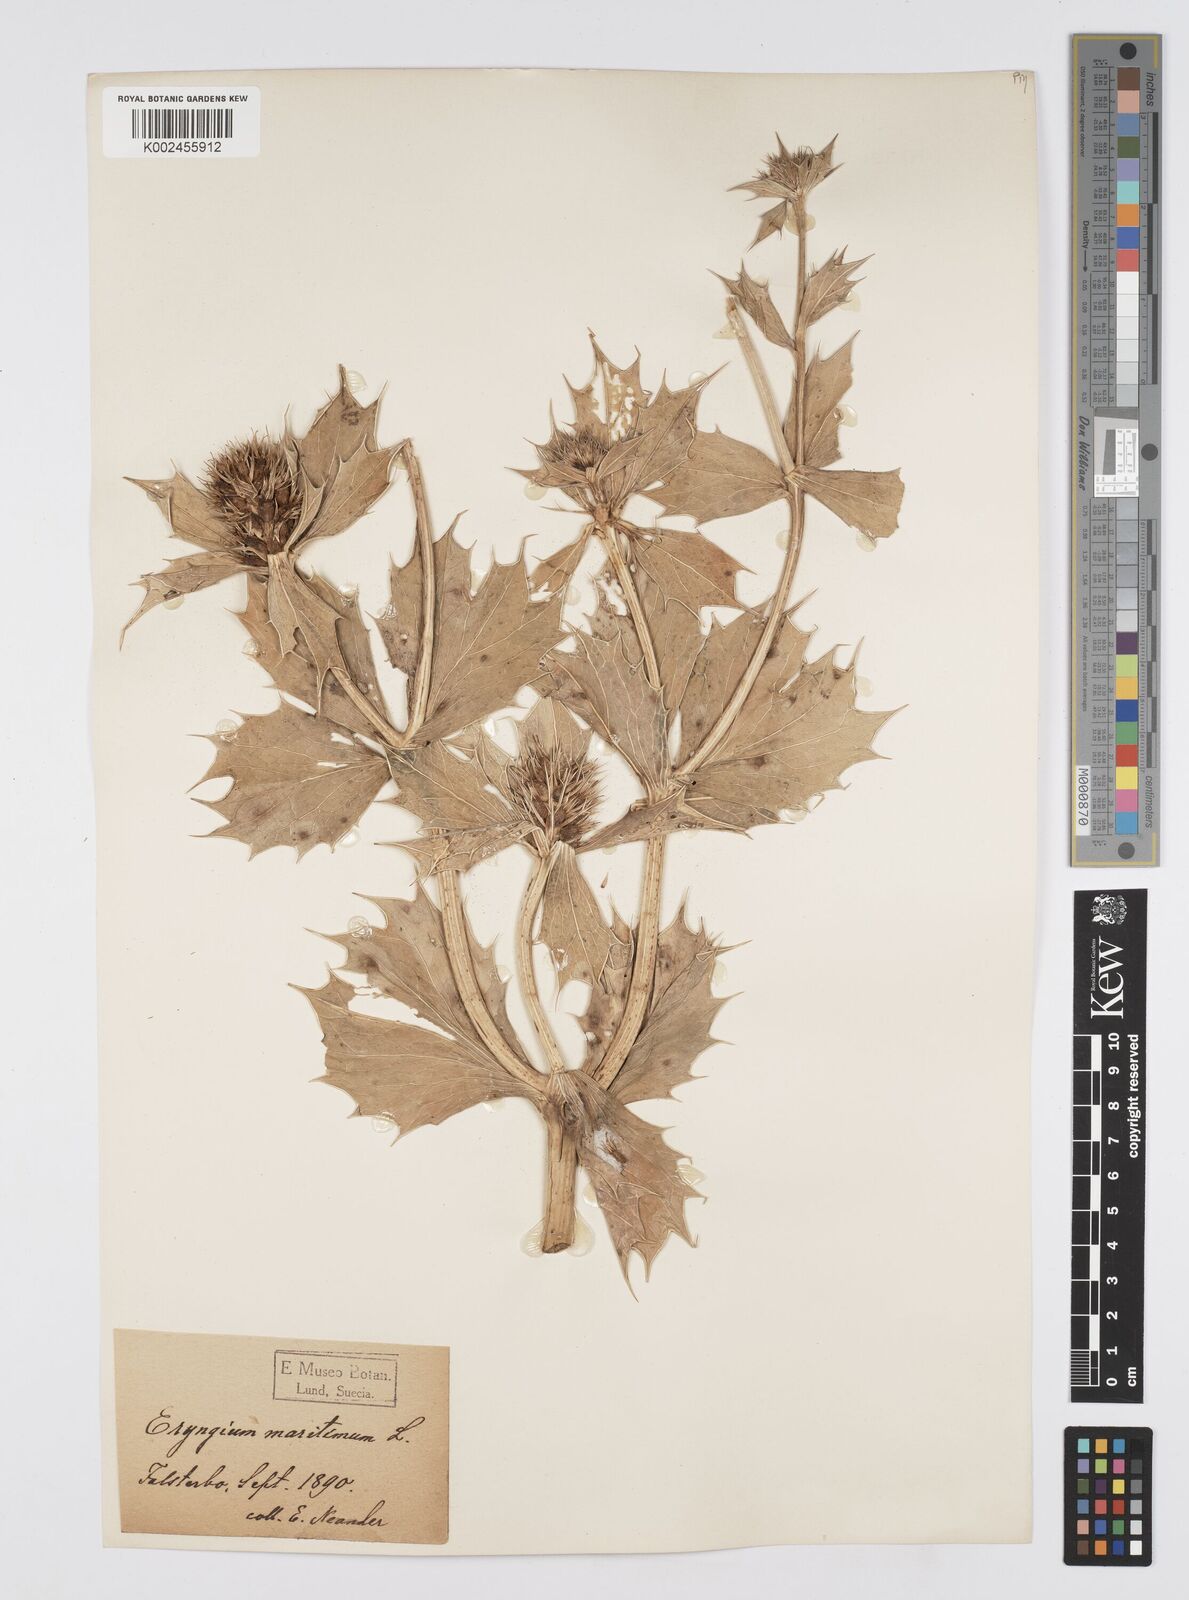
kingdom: Plantae
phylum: Tracheophyta
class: Magnoliopsida
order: Apiales
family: Apiaceae
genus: Eryngium
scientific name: Eryngium maritimum
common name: Sea-holly
